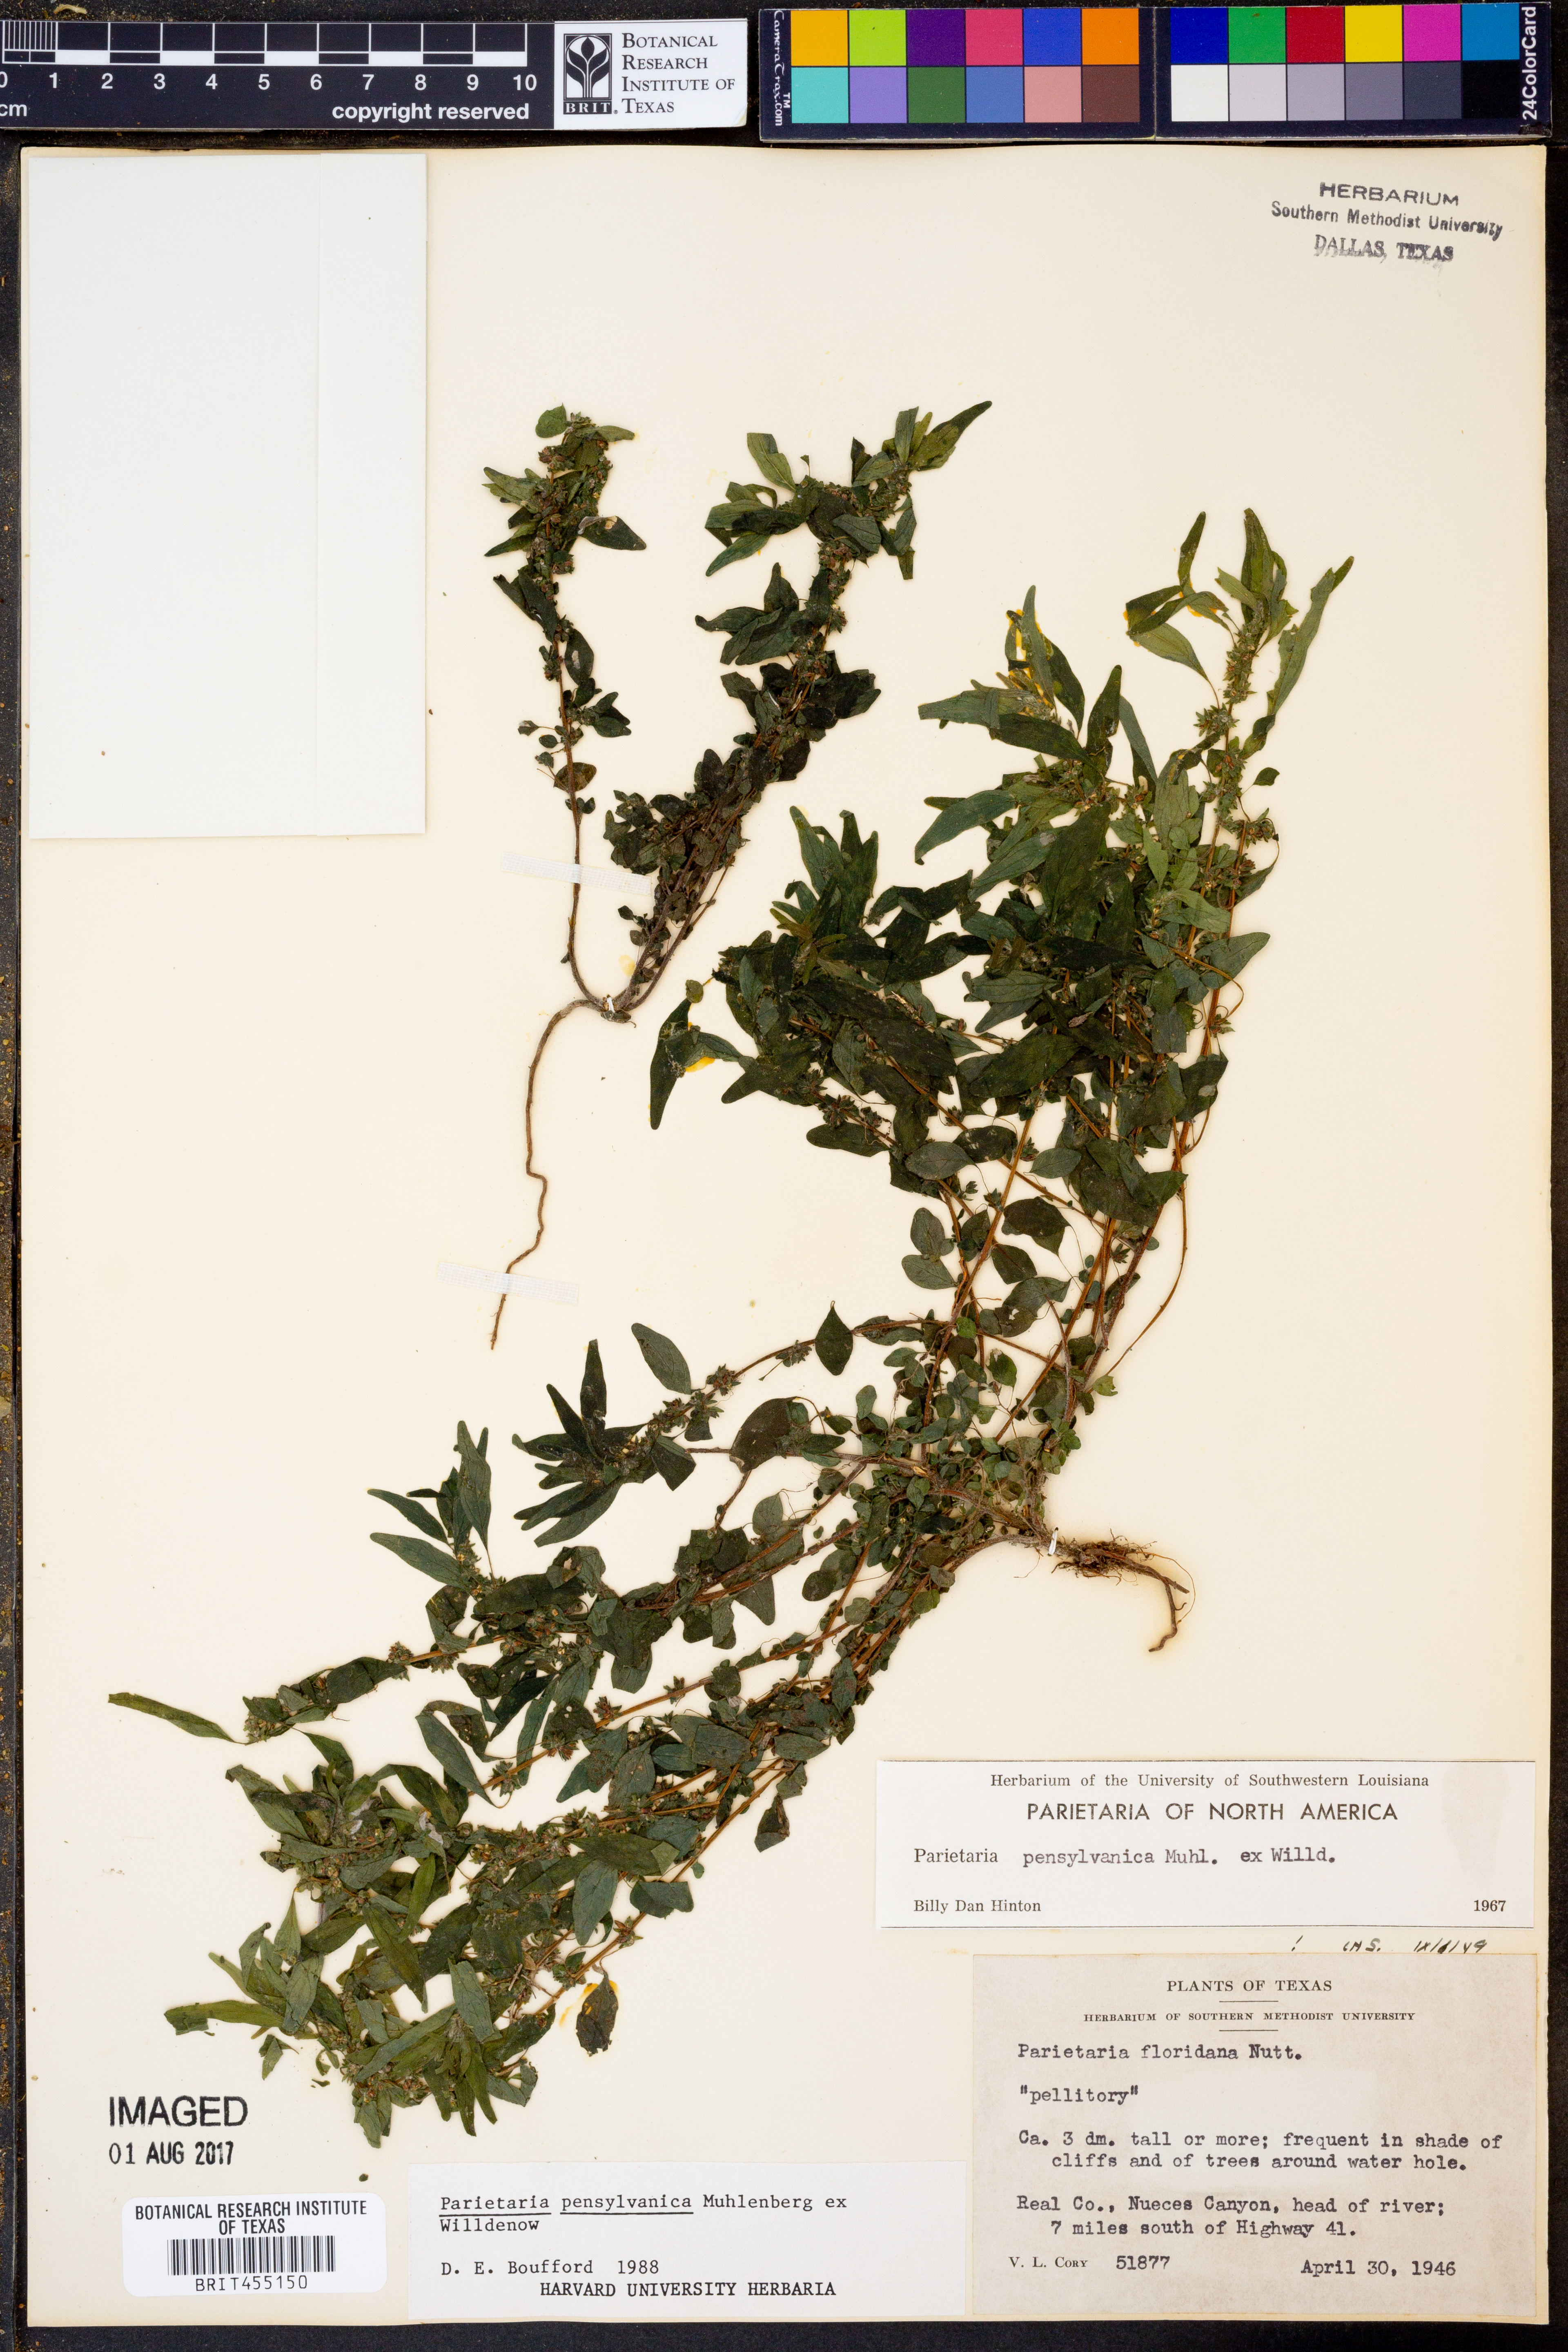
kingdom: Plantae
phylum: Tracheophyta
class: Magnoliopsida
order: Rosales
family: Urticaceae
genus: Parietaria
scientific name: Parietaria pensylvanica
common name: Pennsylvania pellitory
